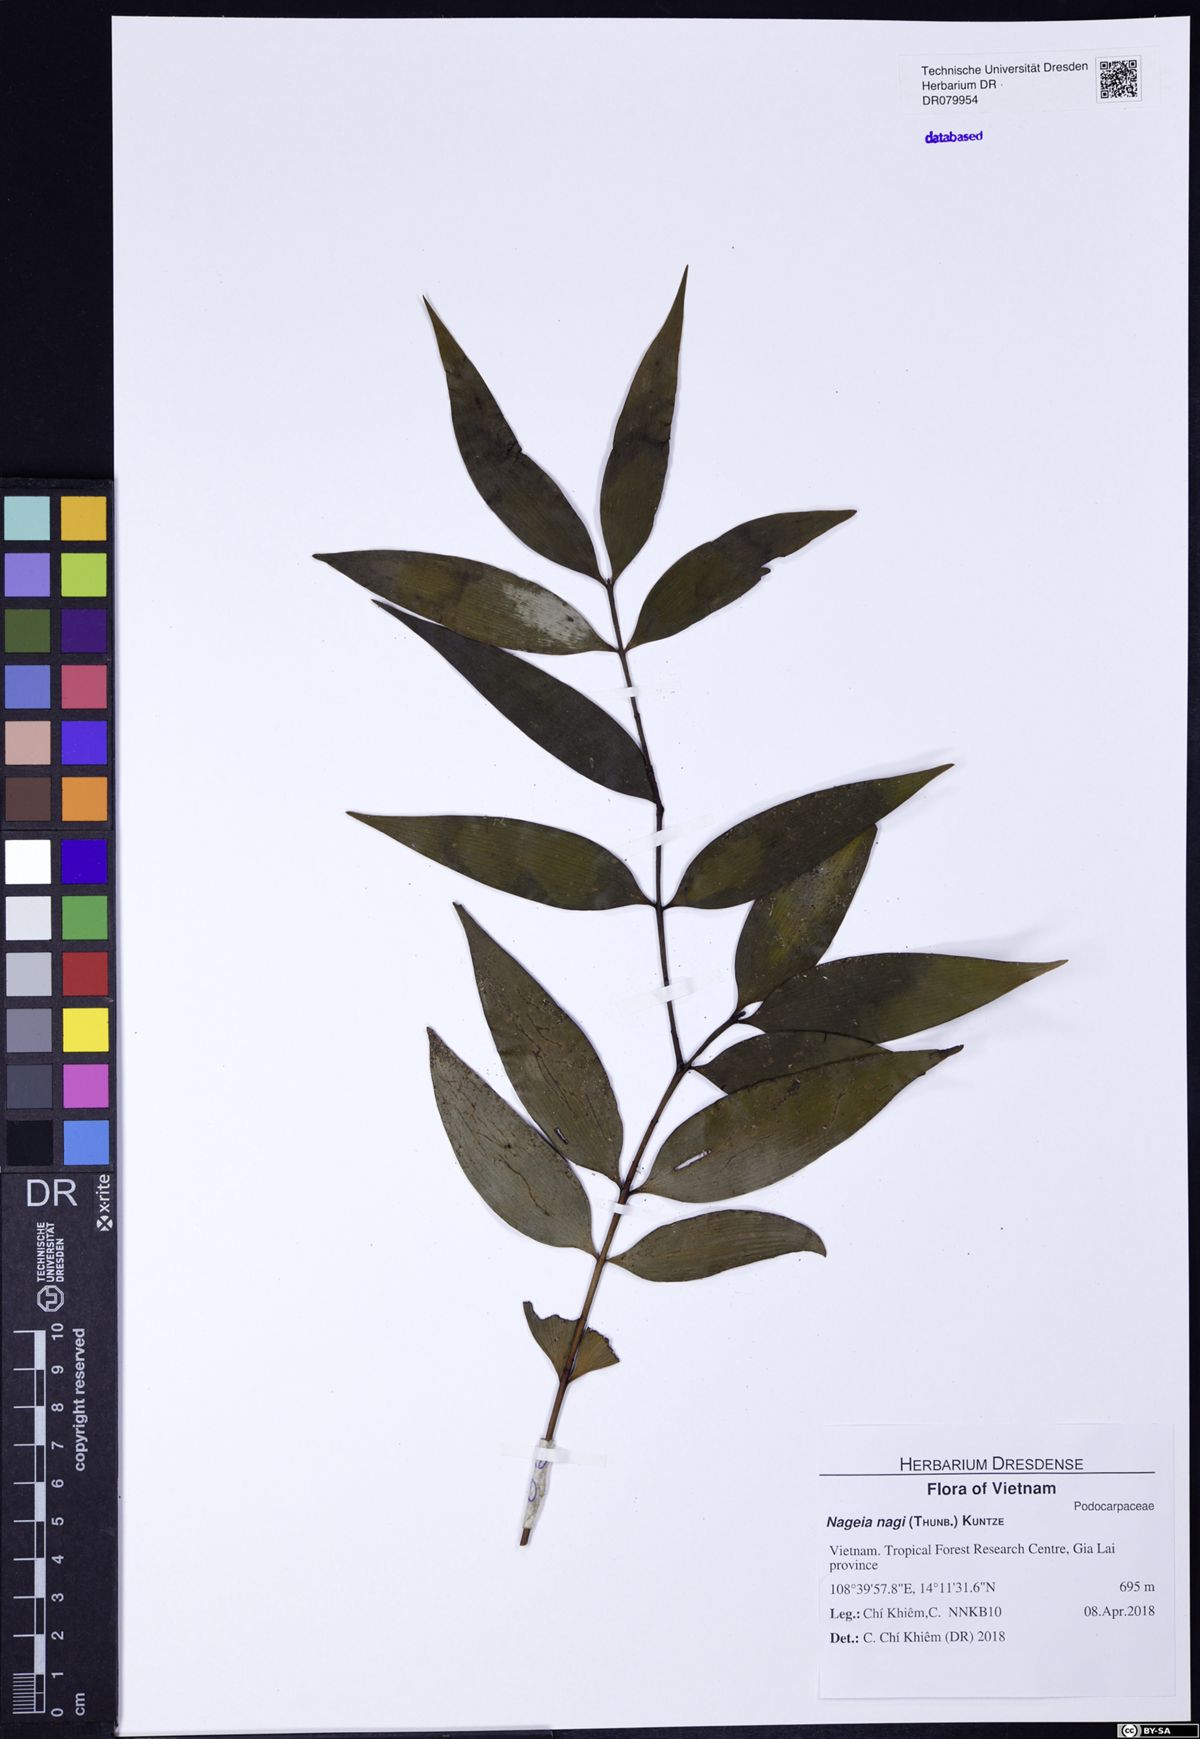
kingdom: Plantae
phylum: Tracheophyta
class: Pinopsida
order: Pinales
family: Podocarpaceae
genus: Nageia
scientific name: Nageia nagi
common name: Kaphal
